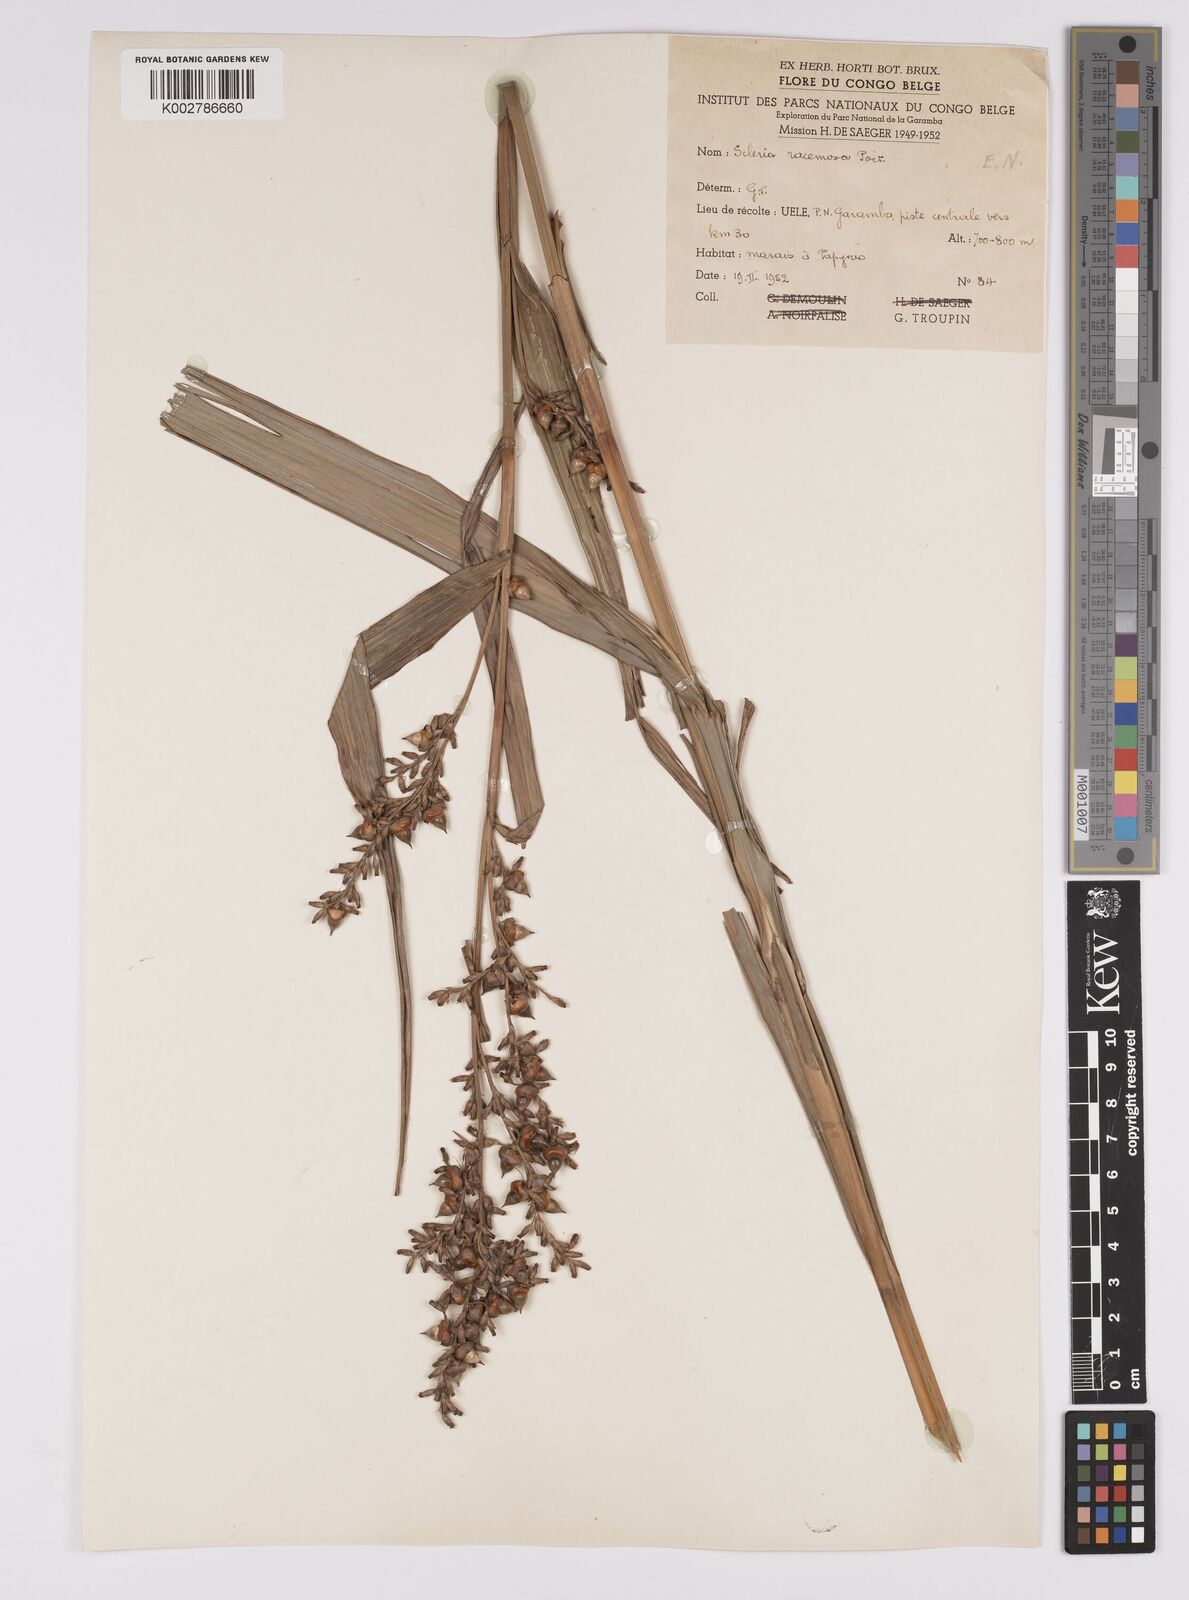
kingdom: Plantae
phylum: Tracheophyta
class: Liliopsida
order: Poales
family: Cyperaceae
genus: Scleria
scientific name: Scleria racemosa
